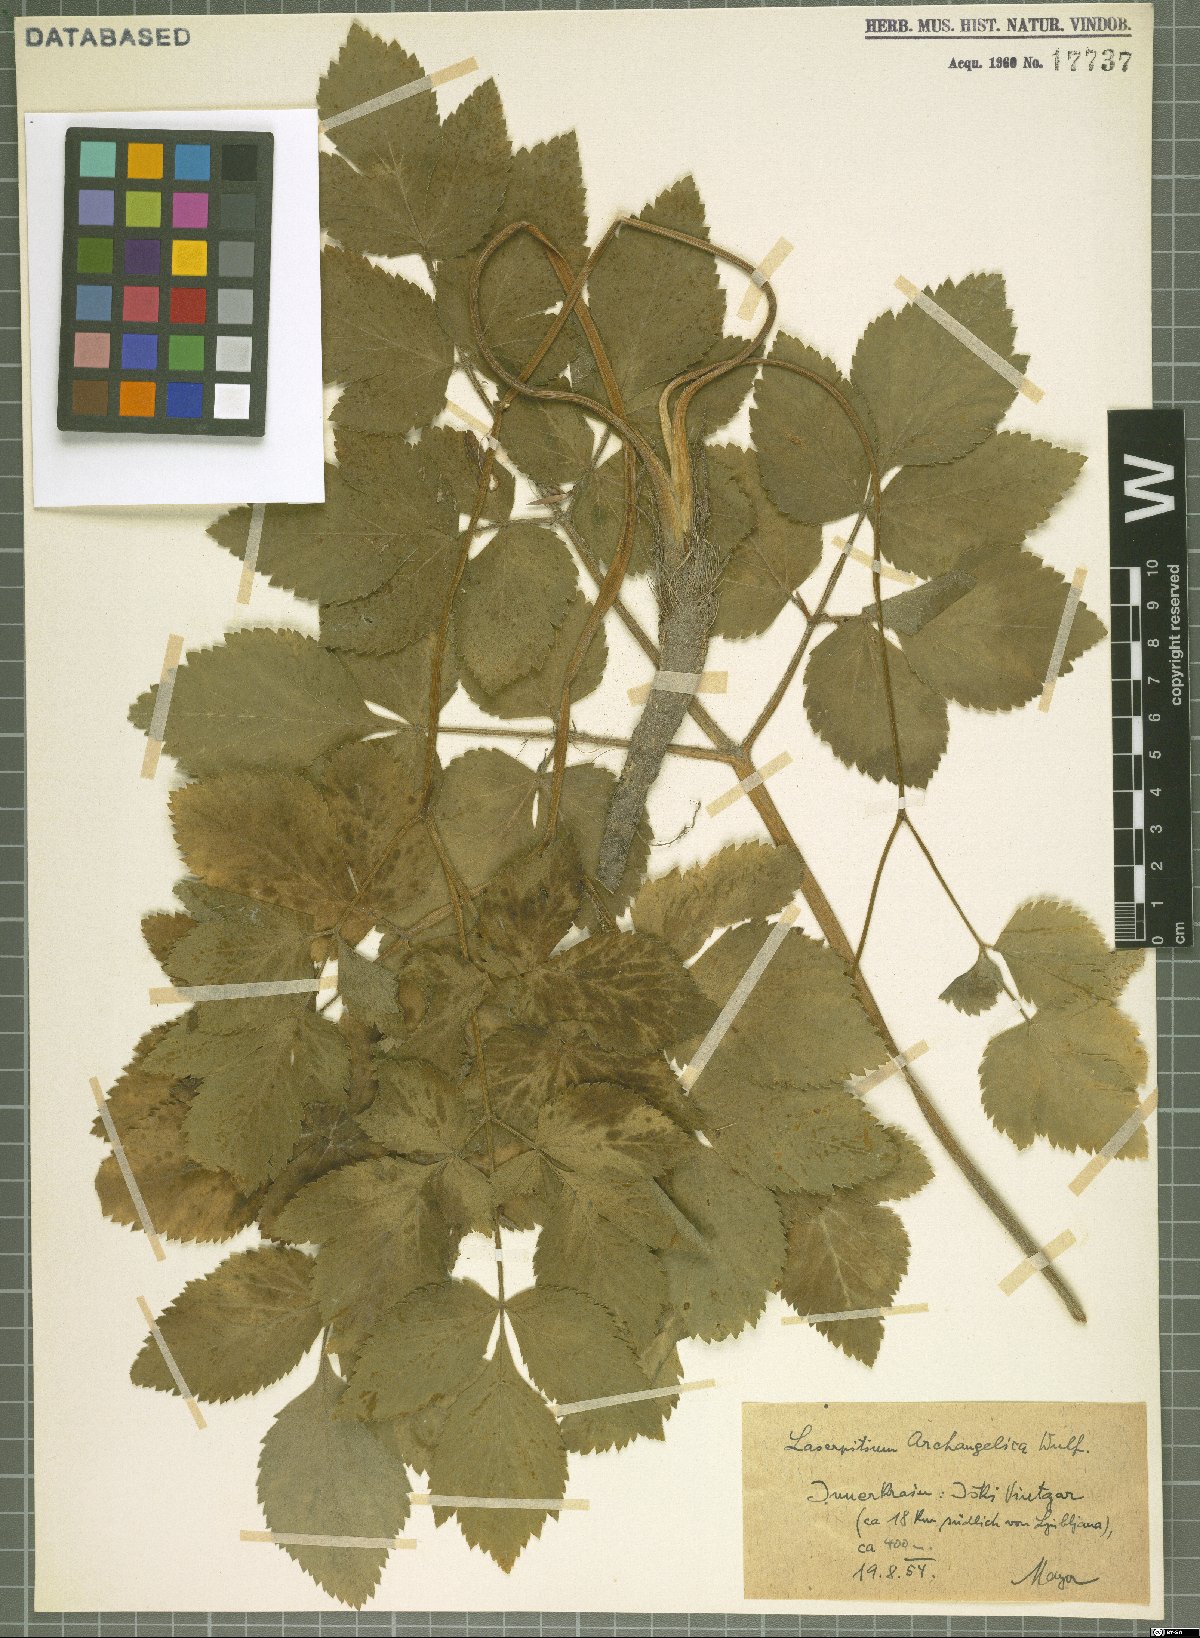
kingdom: Plantae
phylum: Tracheophyta
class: Magnoliopsida
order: Apiales
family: Apiaceae
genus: Laser
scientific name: Laser archangelica
